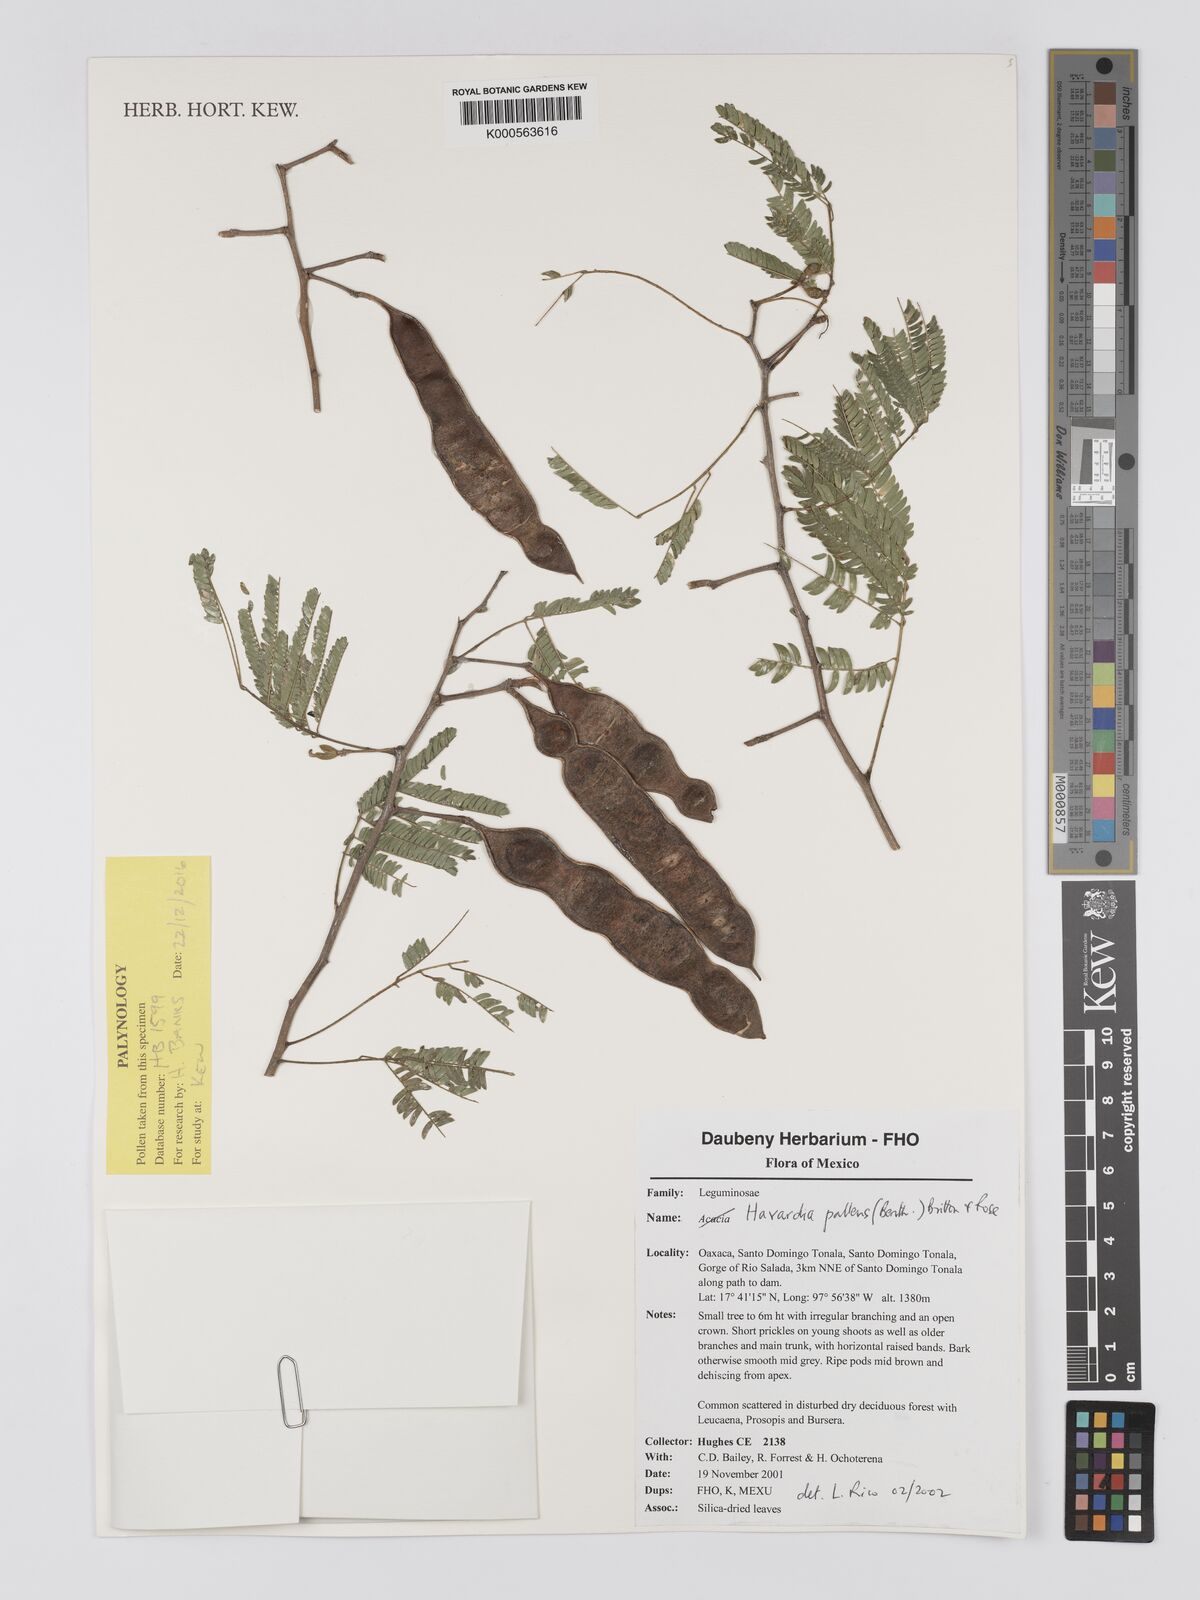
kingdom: Plantae
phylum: Tracheophyta
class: Magnoliopsida
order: Fabales
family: Fabaceae
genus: Havardia
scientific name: Havardia pallens
